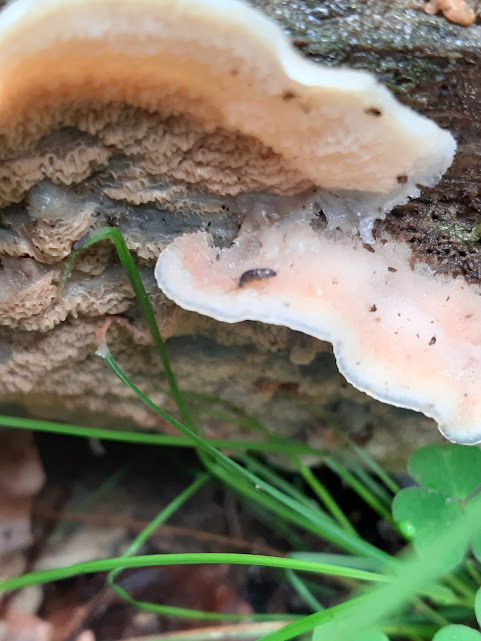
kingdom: Fungi
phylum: Basidiomycota
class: Agaricomycetes
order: Polyporales
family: Meruliaceae
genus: Phlebia
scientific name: Phlebia tremellosa
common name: bævrende åresvamp
